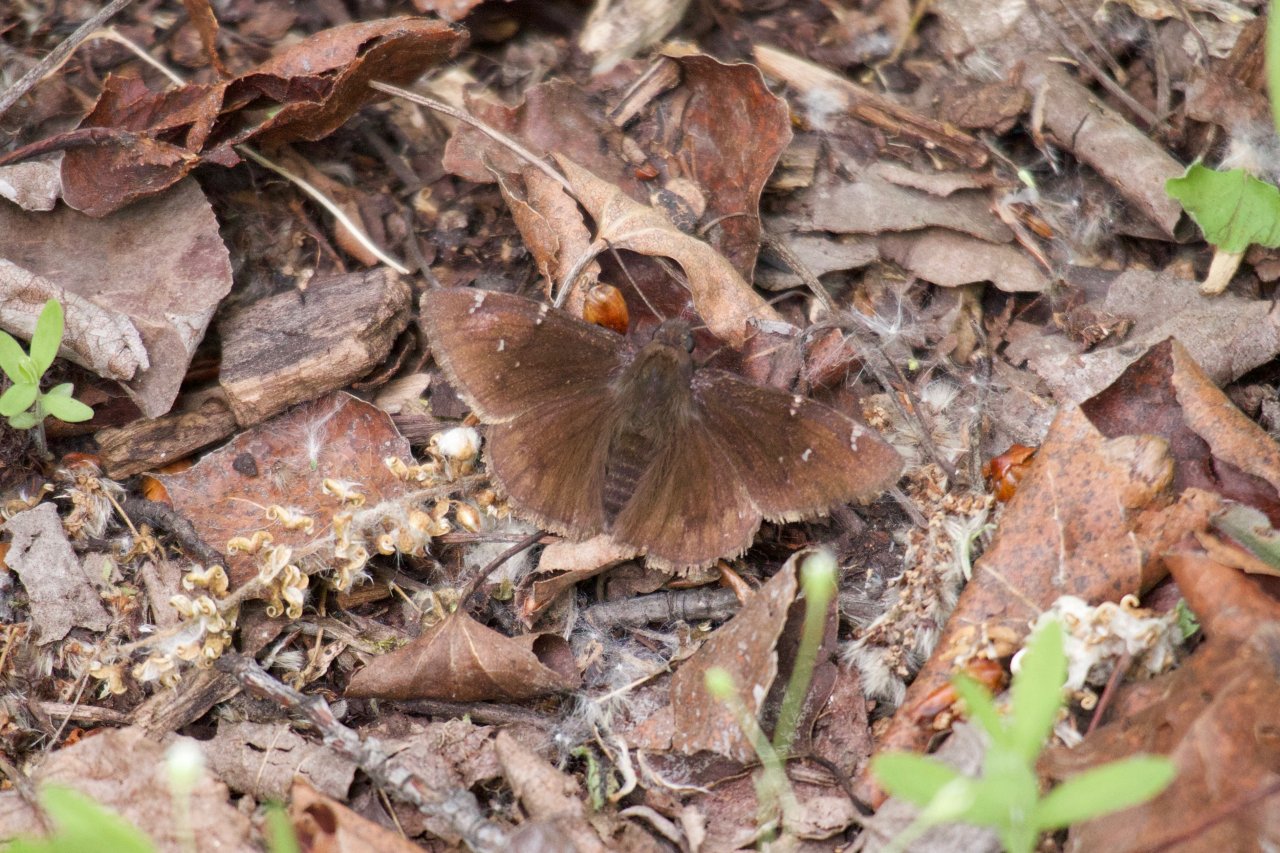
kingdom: Animalia
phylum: Arthropoda
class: Insecta
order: Lepidoptera
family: Hesperiidae
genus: Autochton
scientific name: Autochton
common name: Northern Cloudywing
